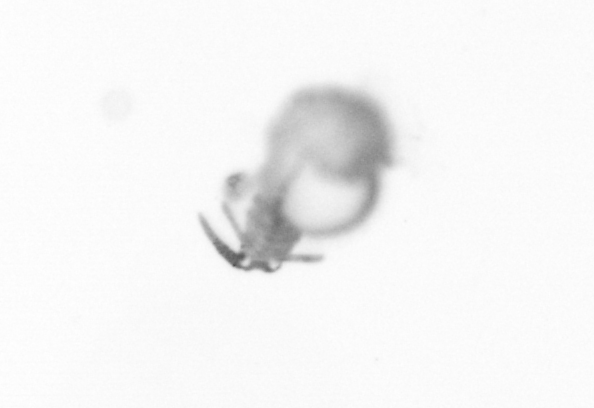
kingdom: Animalia
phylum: Annelida
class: Polychaeta
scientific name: Polychaeta
